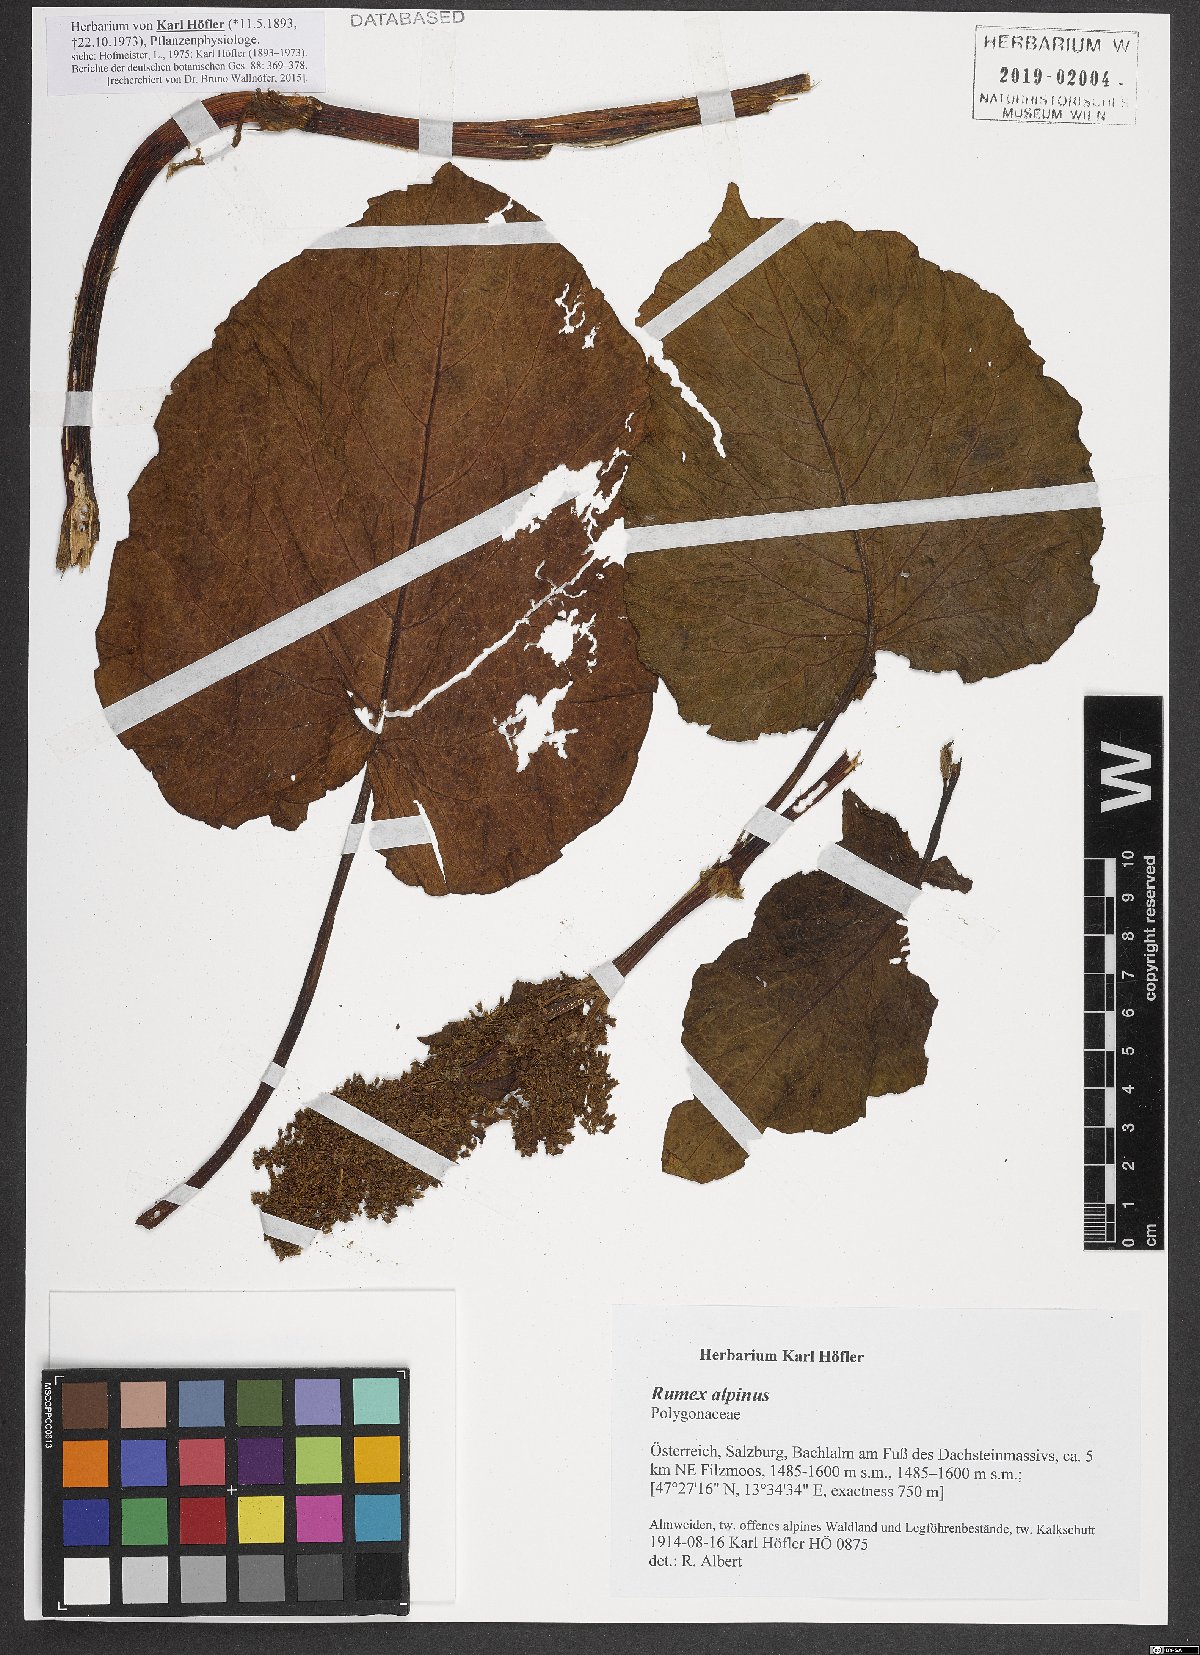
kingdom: Plantae
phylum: Tracheophyta
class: Magnoliopsida
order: Caryophyllales
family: Polygonaceae
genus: Rumex
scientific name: Rumex alpinus
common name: Alpine dock
